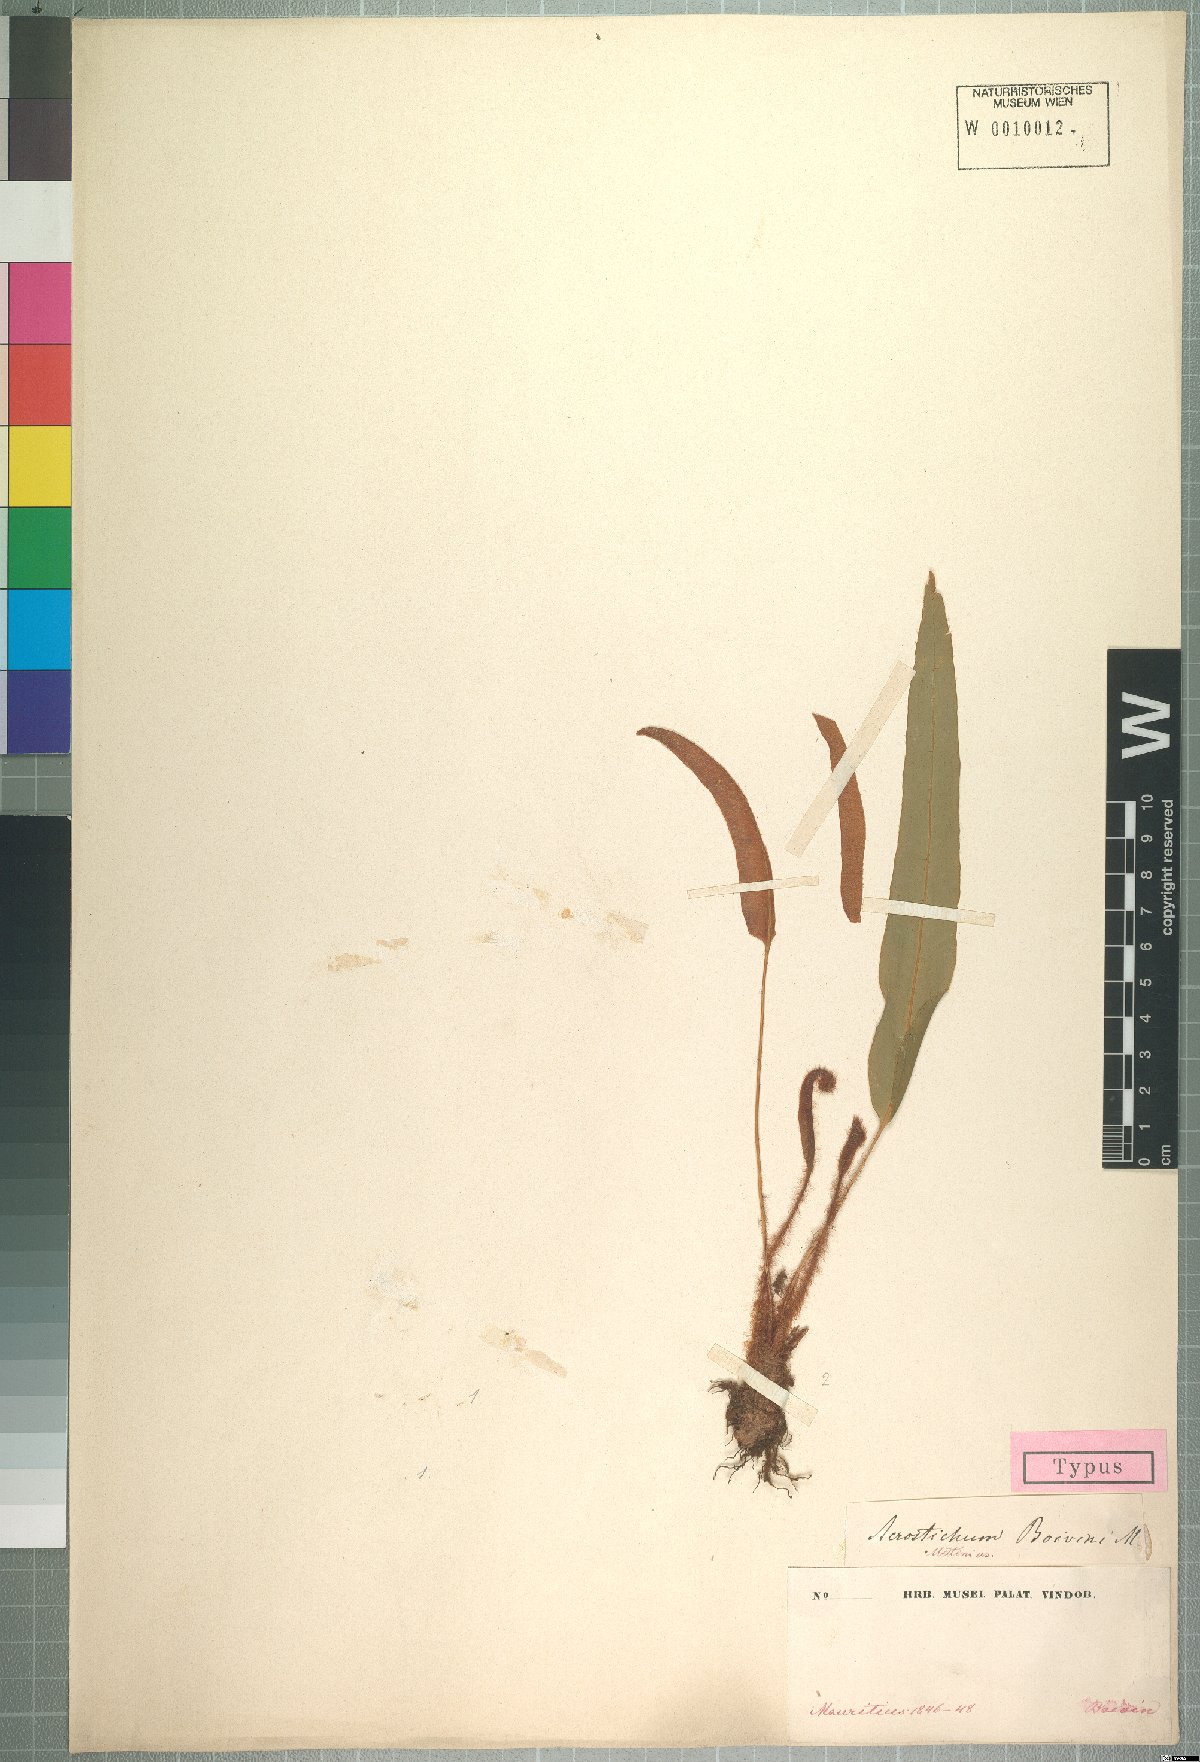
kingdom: Plantae
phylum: Tracheophyta
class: Polypodiopsida
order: Polypodiales
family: Dryopteridaceae
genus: Elaphoglossum
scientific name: Elaphoglossum aubertii
